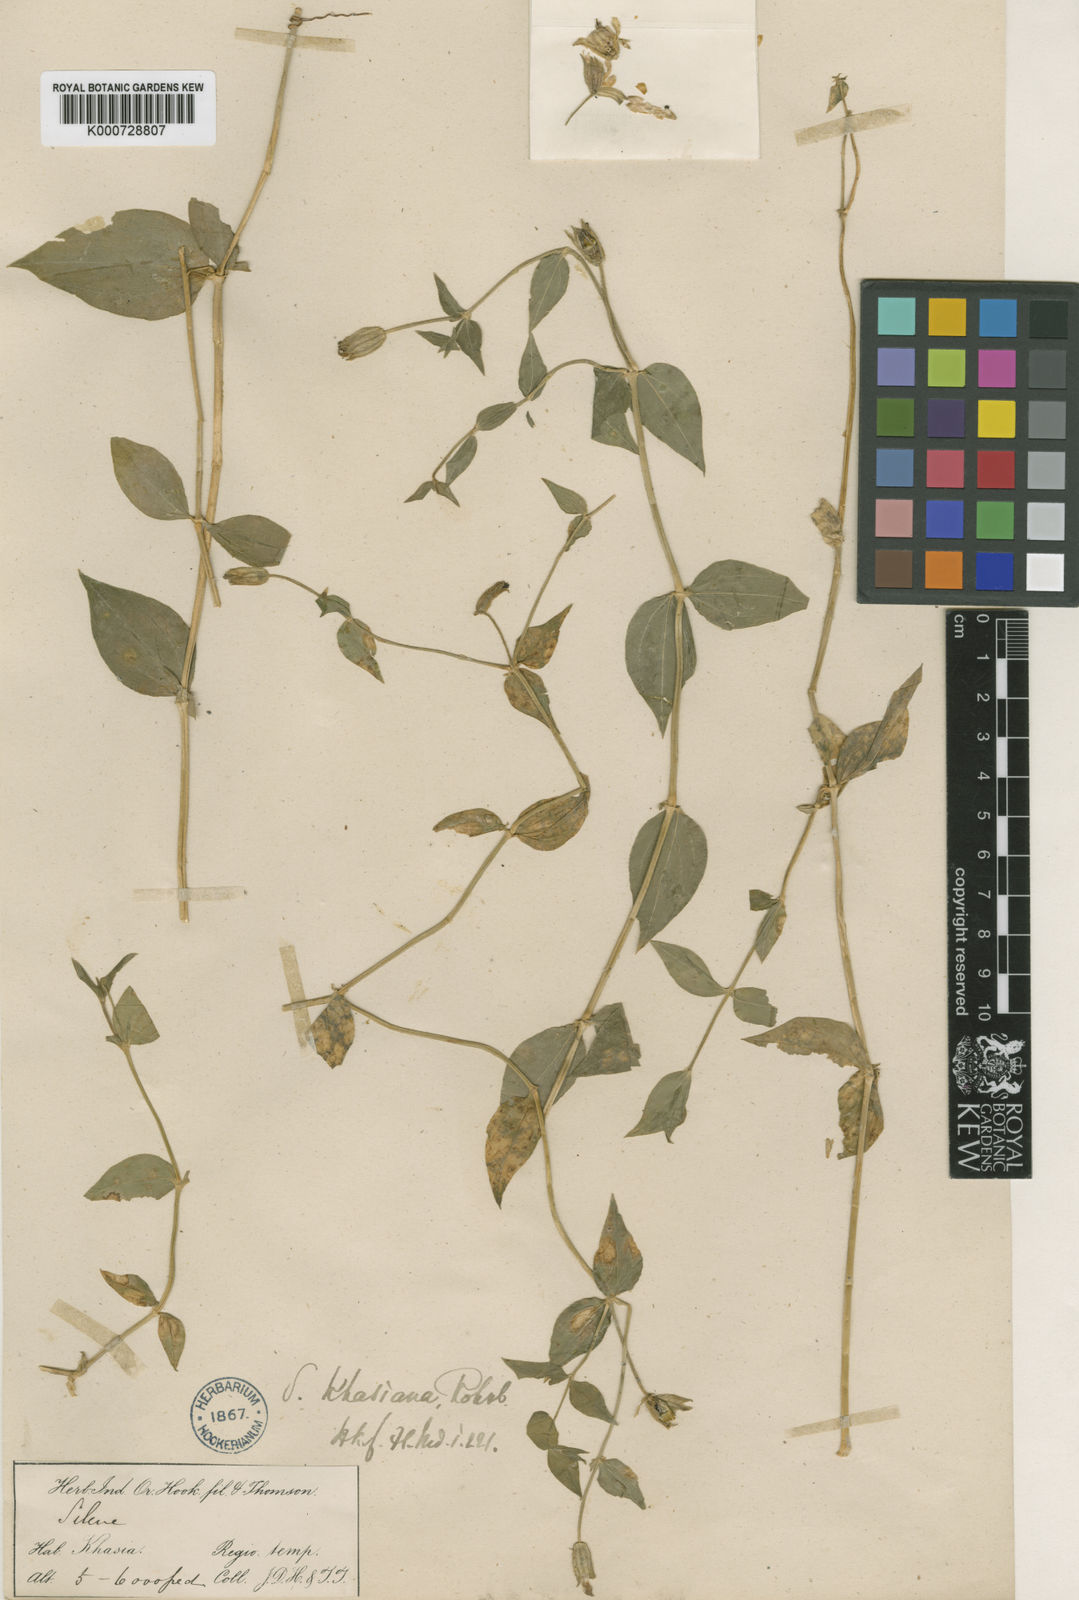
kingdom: Plantae
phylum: Tracheophyta
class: Magnoliopsida
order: Caryophyllales
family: Caryophyllaceae
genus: Silene
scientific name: Silene khasiana
